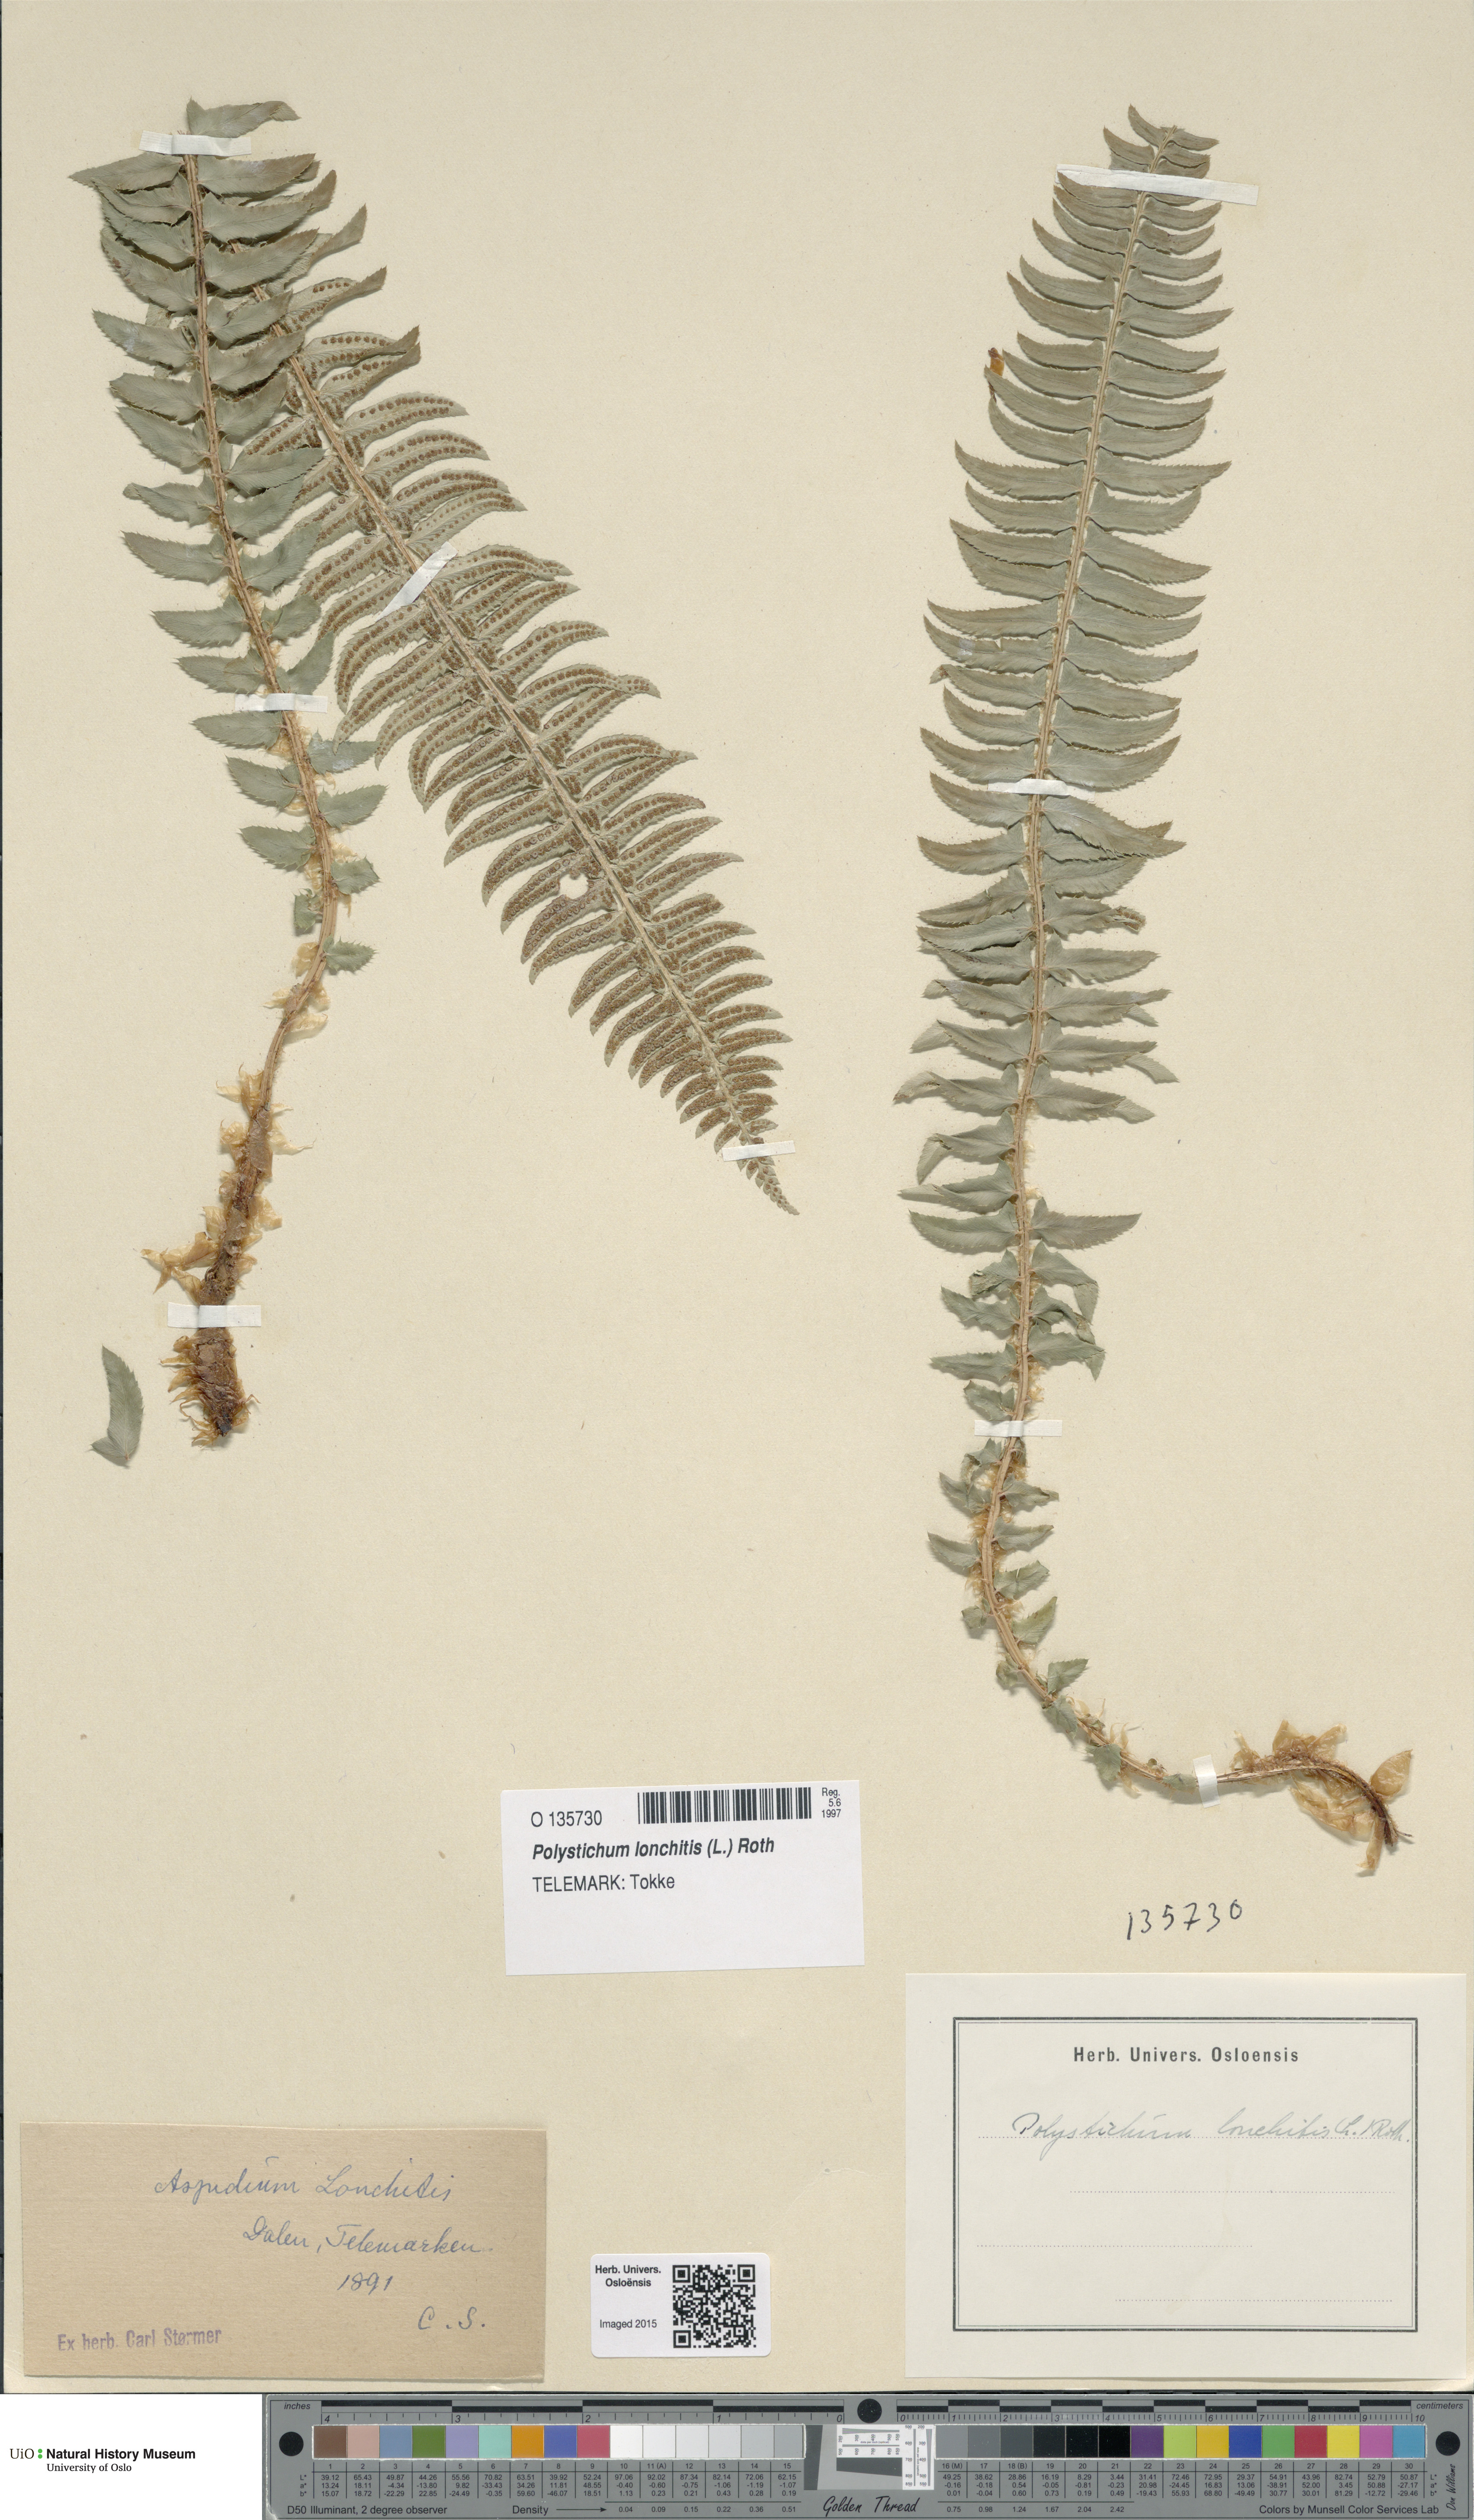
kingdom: Plantae
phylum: Tracheophyta
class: Polypodiopsida
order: Polypodiales
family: Dryopteridaceae
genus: Polystichum
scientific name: Polystichum lonchitis
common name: Holly fern
